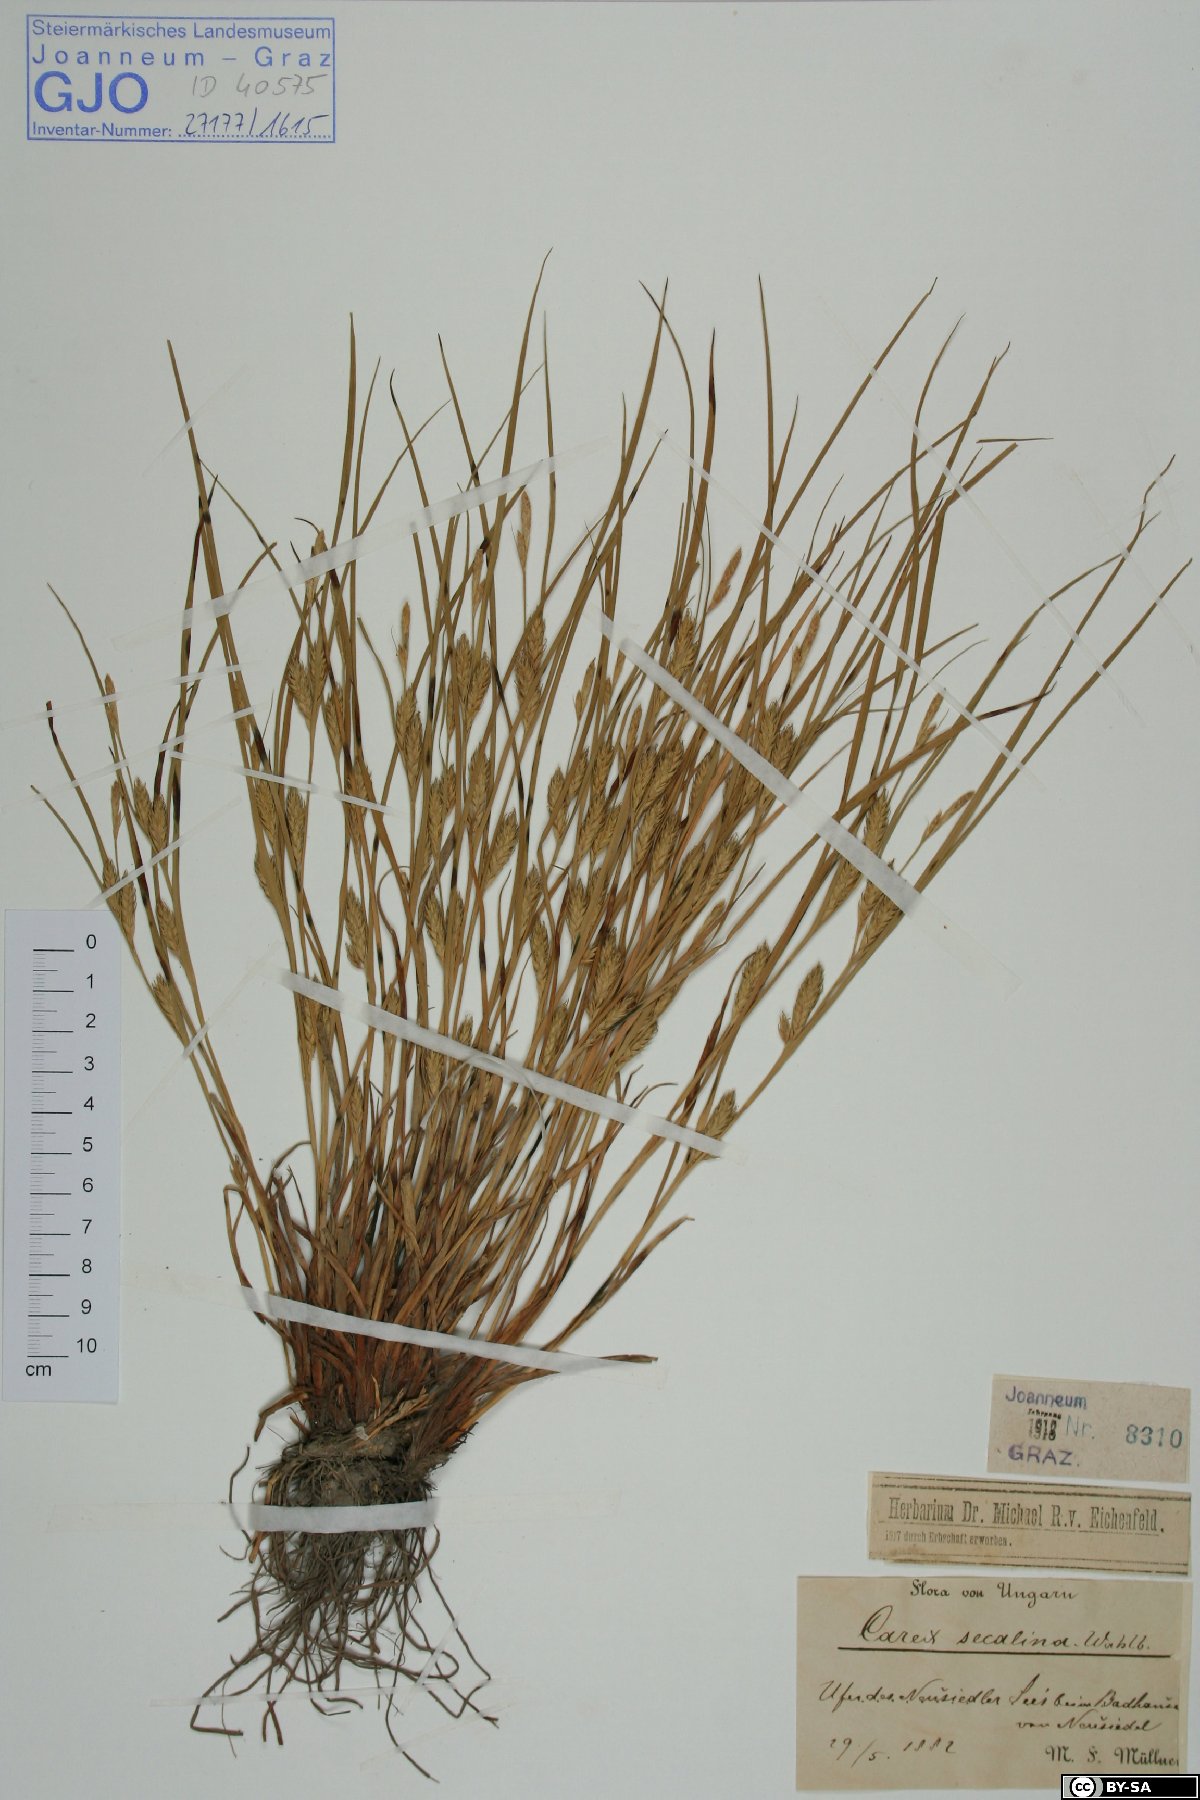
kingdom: Plantae
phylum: Tracheophyta
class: Liliopsida
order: Poales
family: Cyperaceae
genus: Carex
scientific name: Carex secalina
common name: Rye sedge
